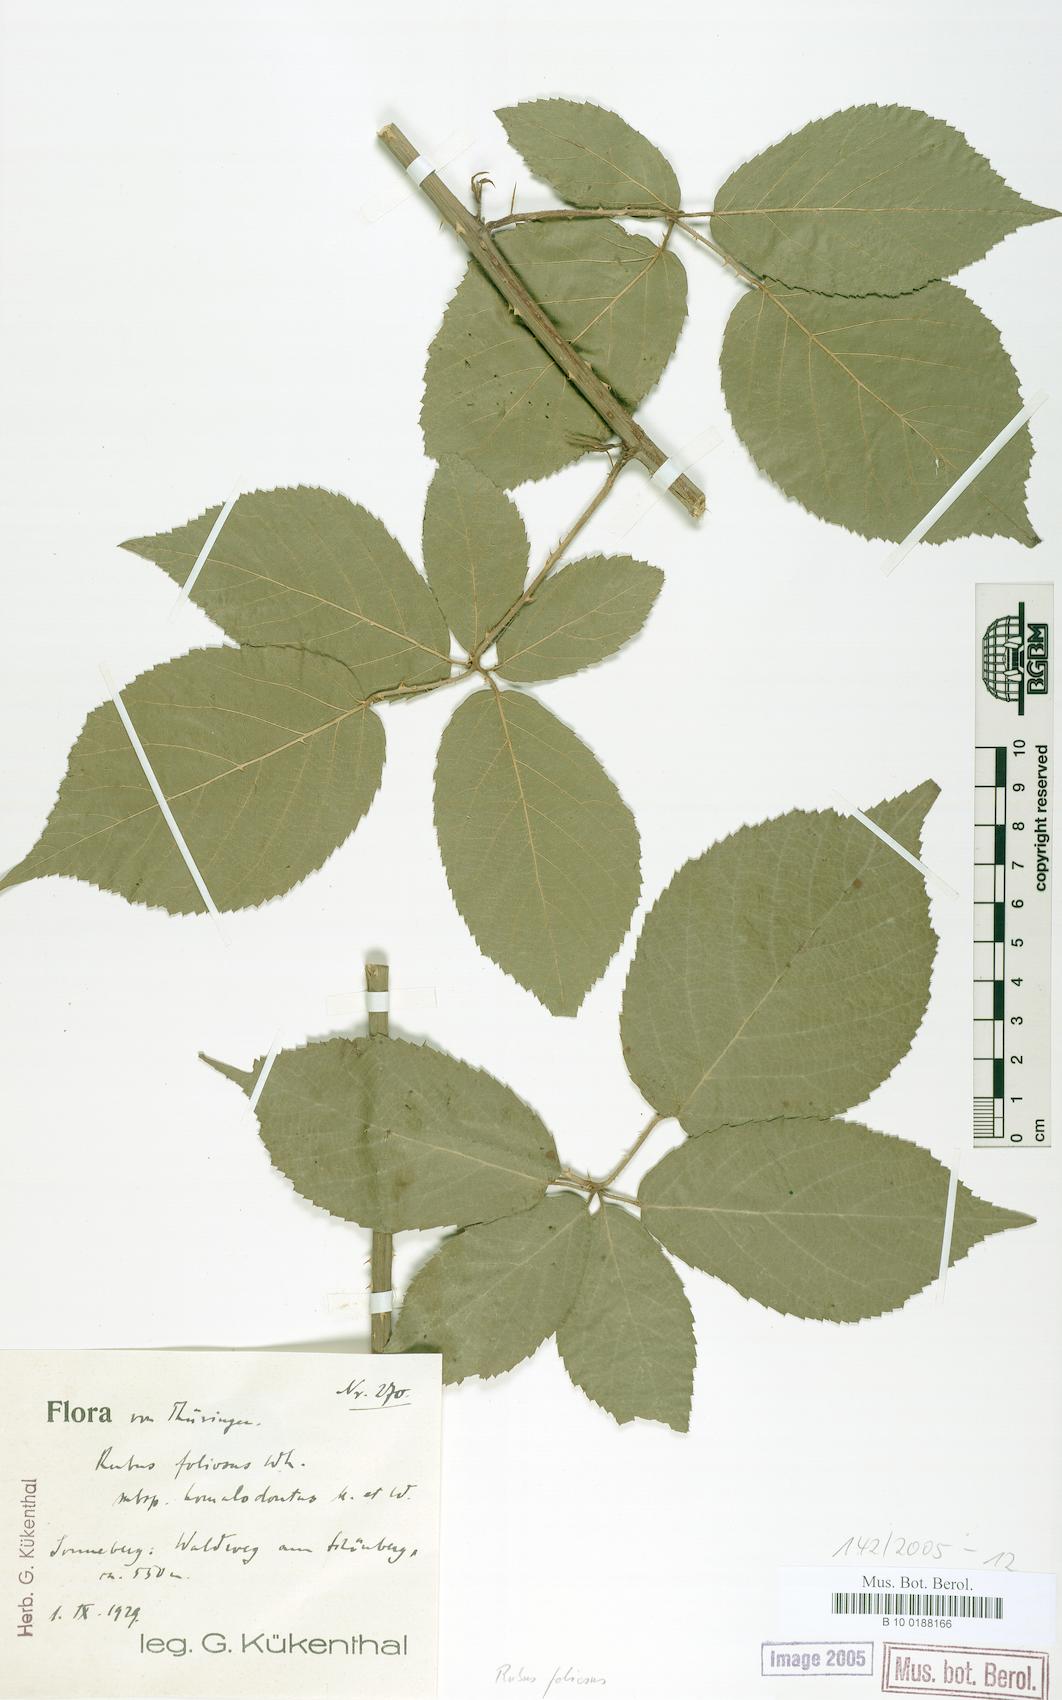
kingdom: Plantae
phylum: Tracheophyta
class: Magnoliopsida
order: Rosales
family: Rosaceae
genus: Rubus
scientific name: Rubus silvae-thuringiae
